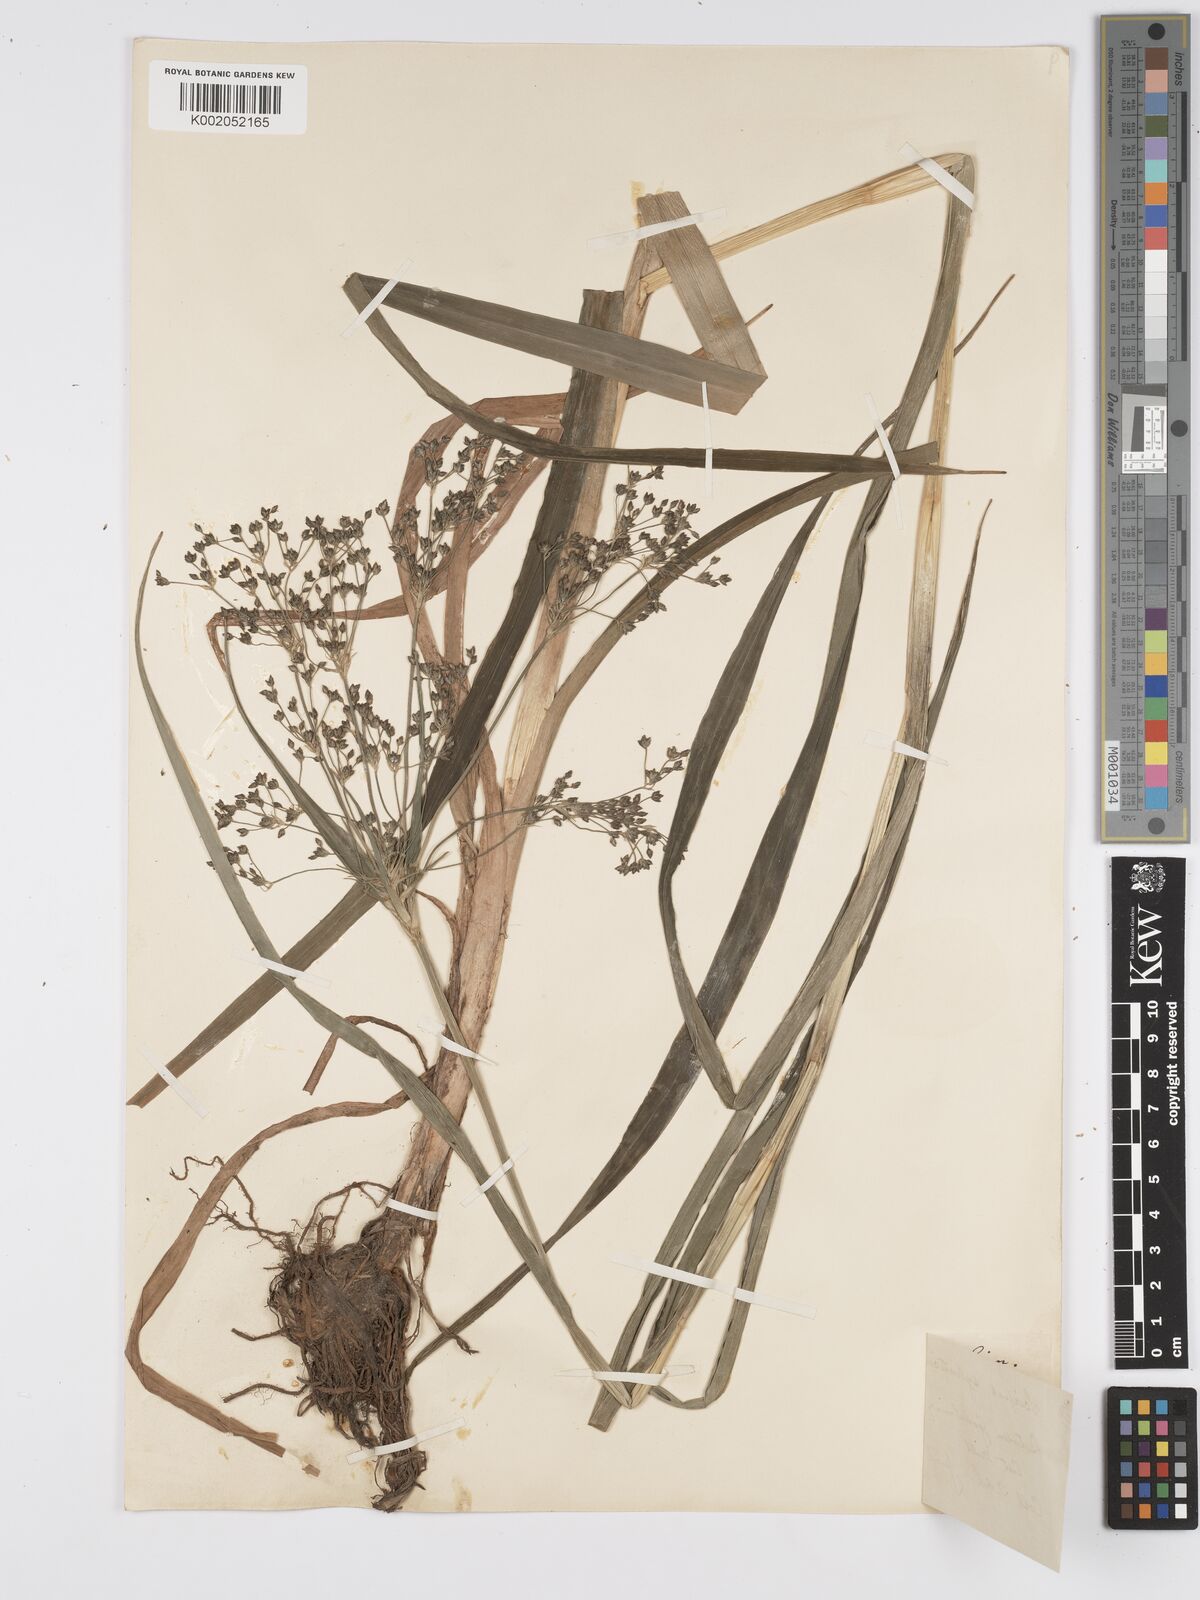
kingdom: Plantae
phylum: Tracheophyta
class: Liliopsida
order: Poales
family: Cyperaceae
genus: Scirpus
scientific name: Scirpus sylvaticus
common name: Wood club-rush
